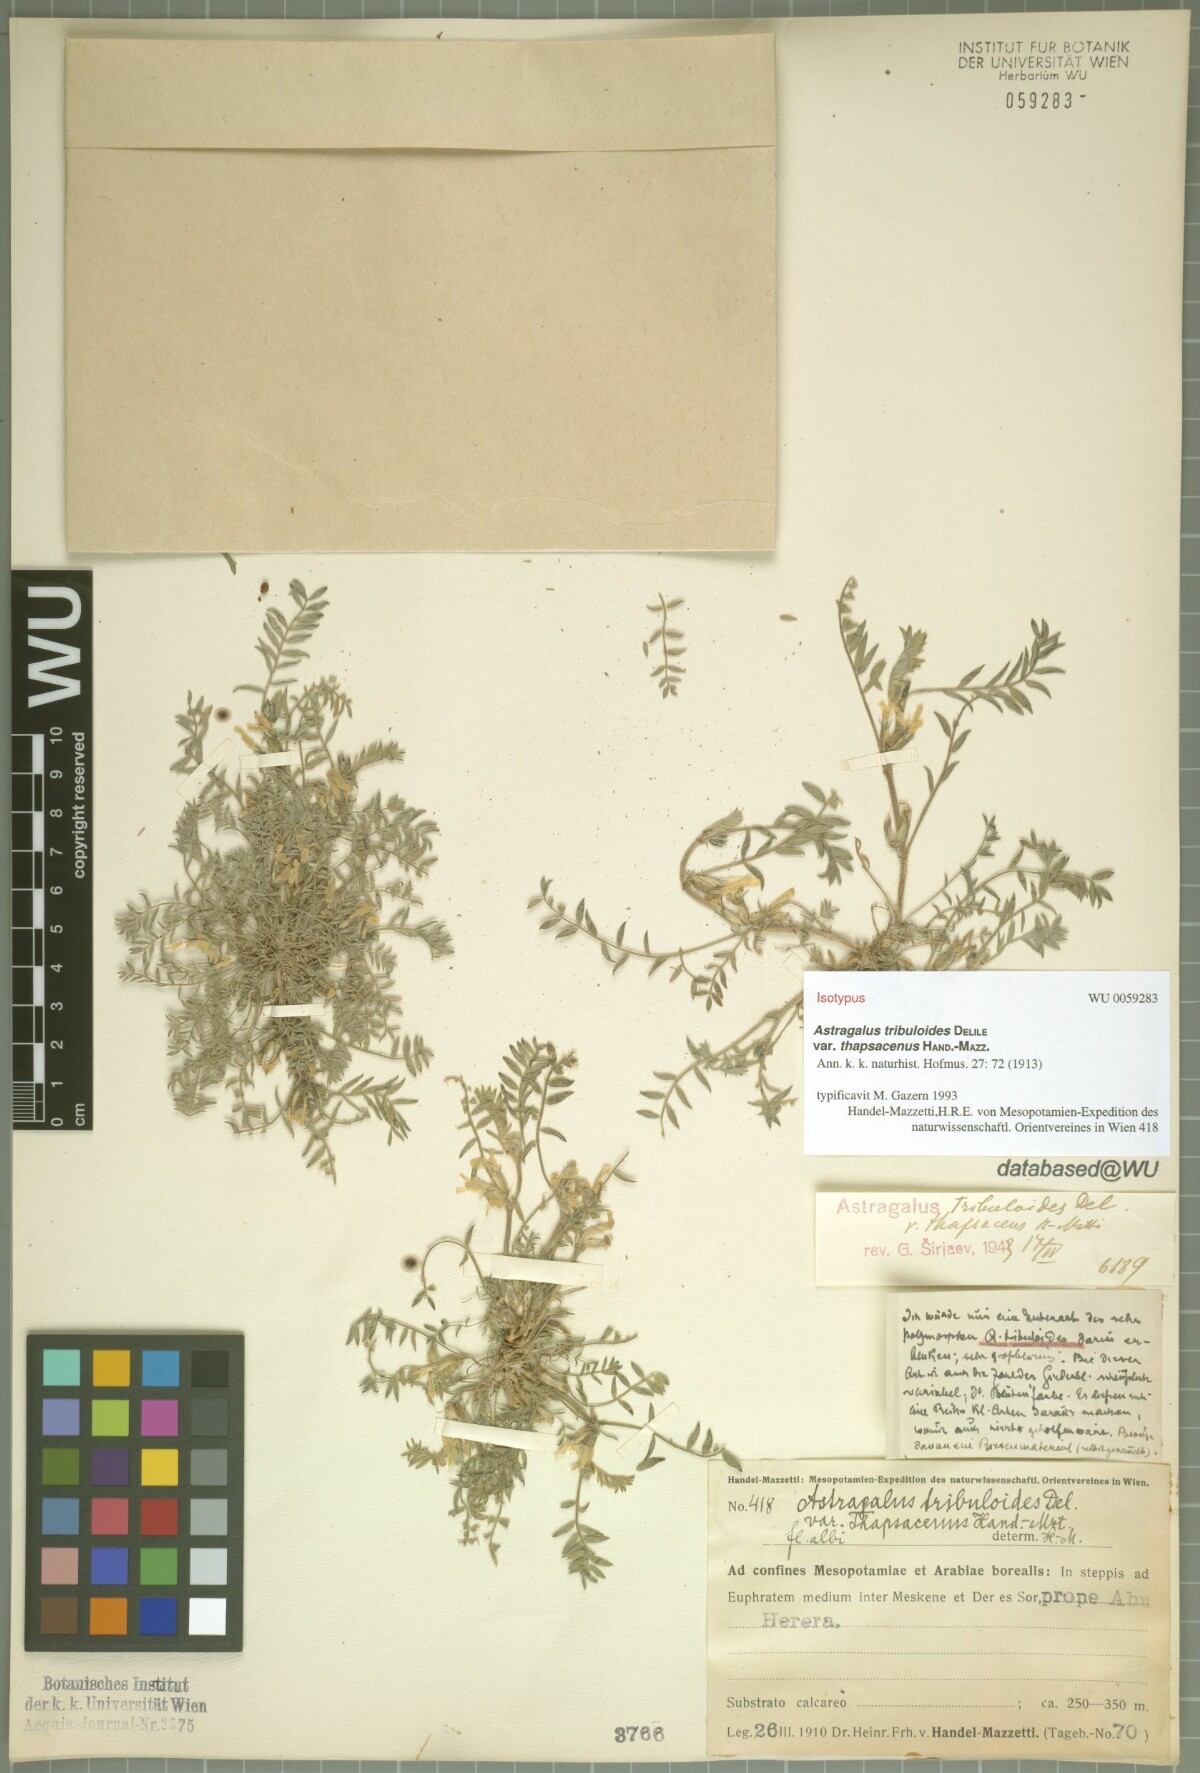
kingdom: Plantae
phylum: Tracheophyta
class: Magnoliopsida
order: Fabales
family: Fabaceae
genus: Astragalus
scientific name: Astragalus tribuloides
